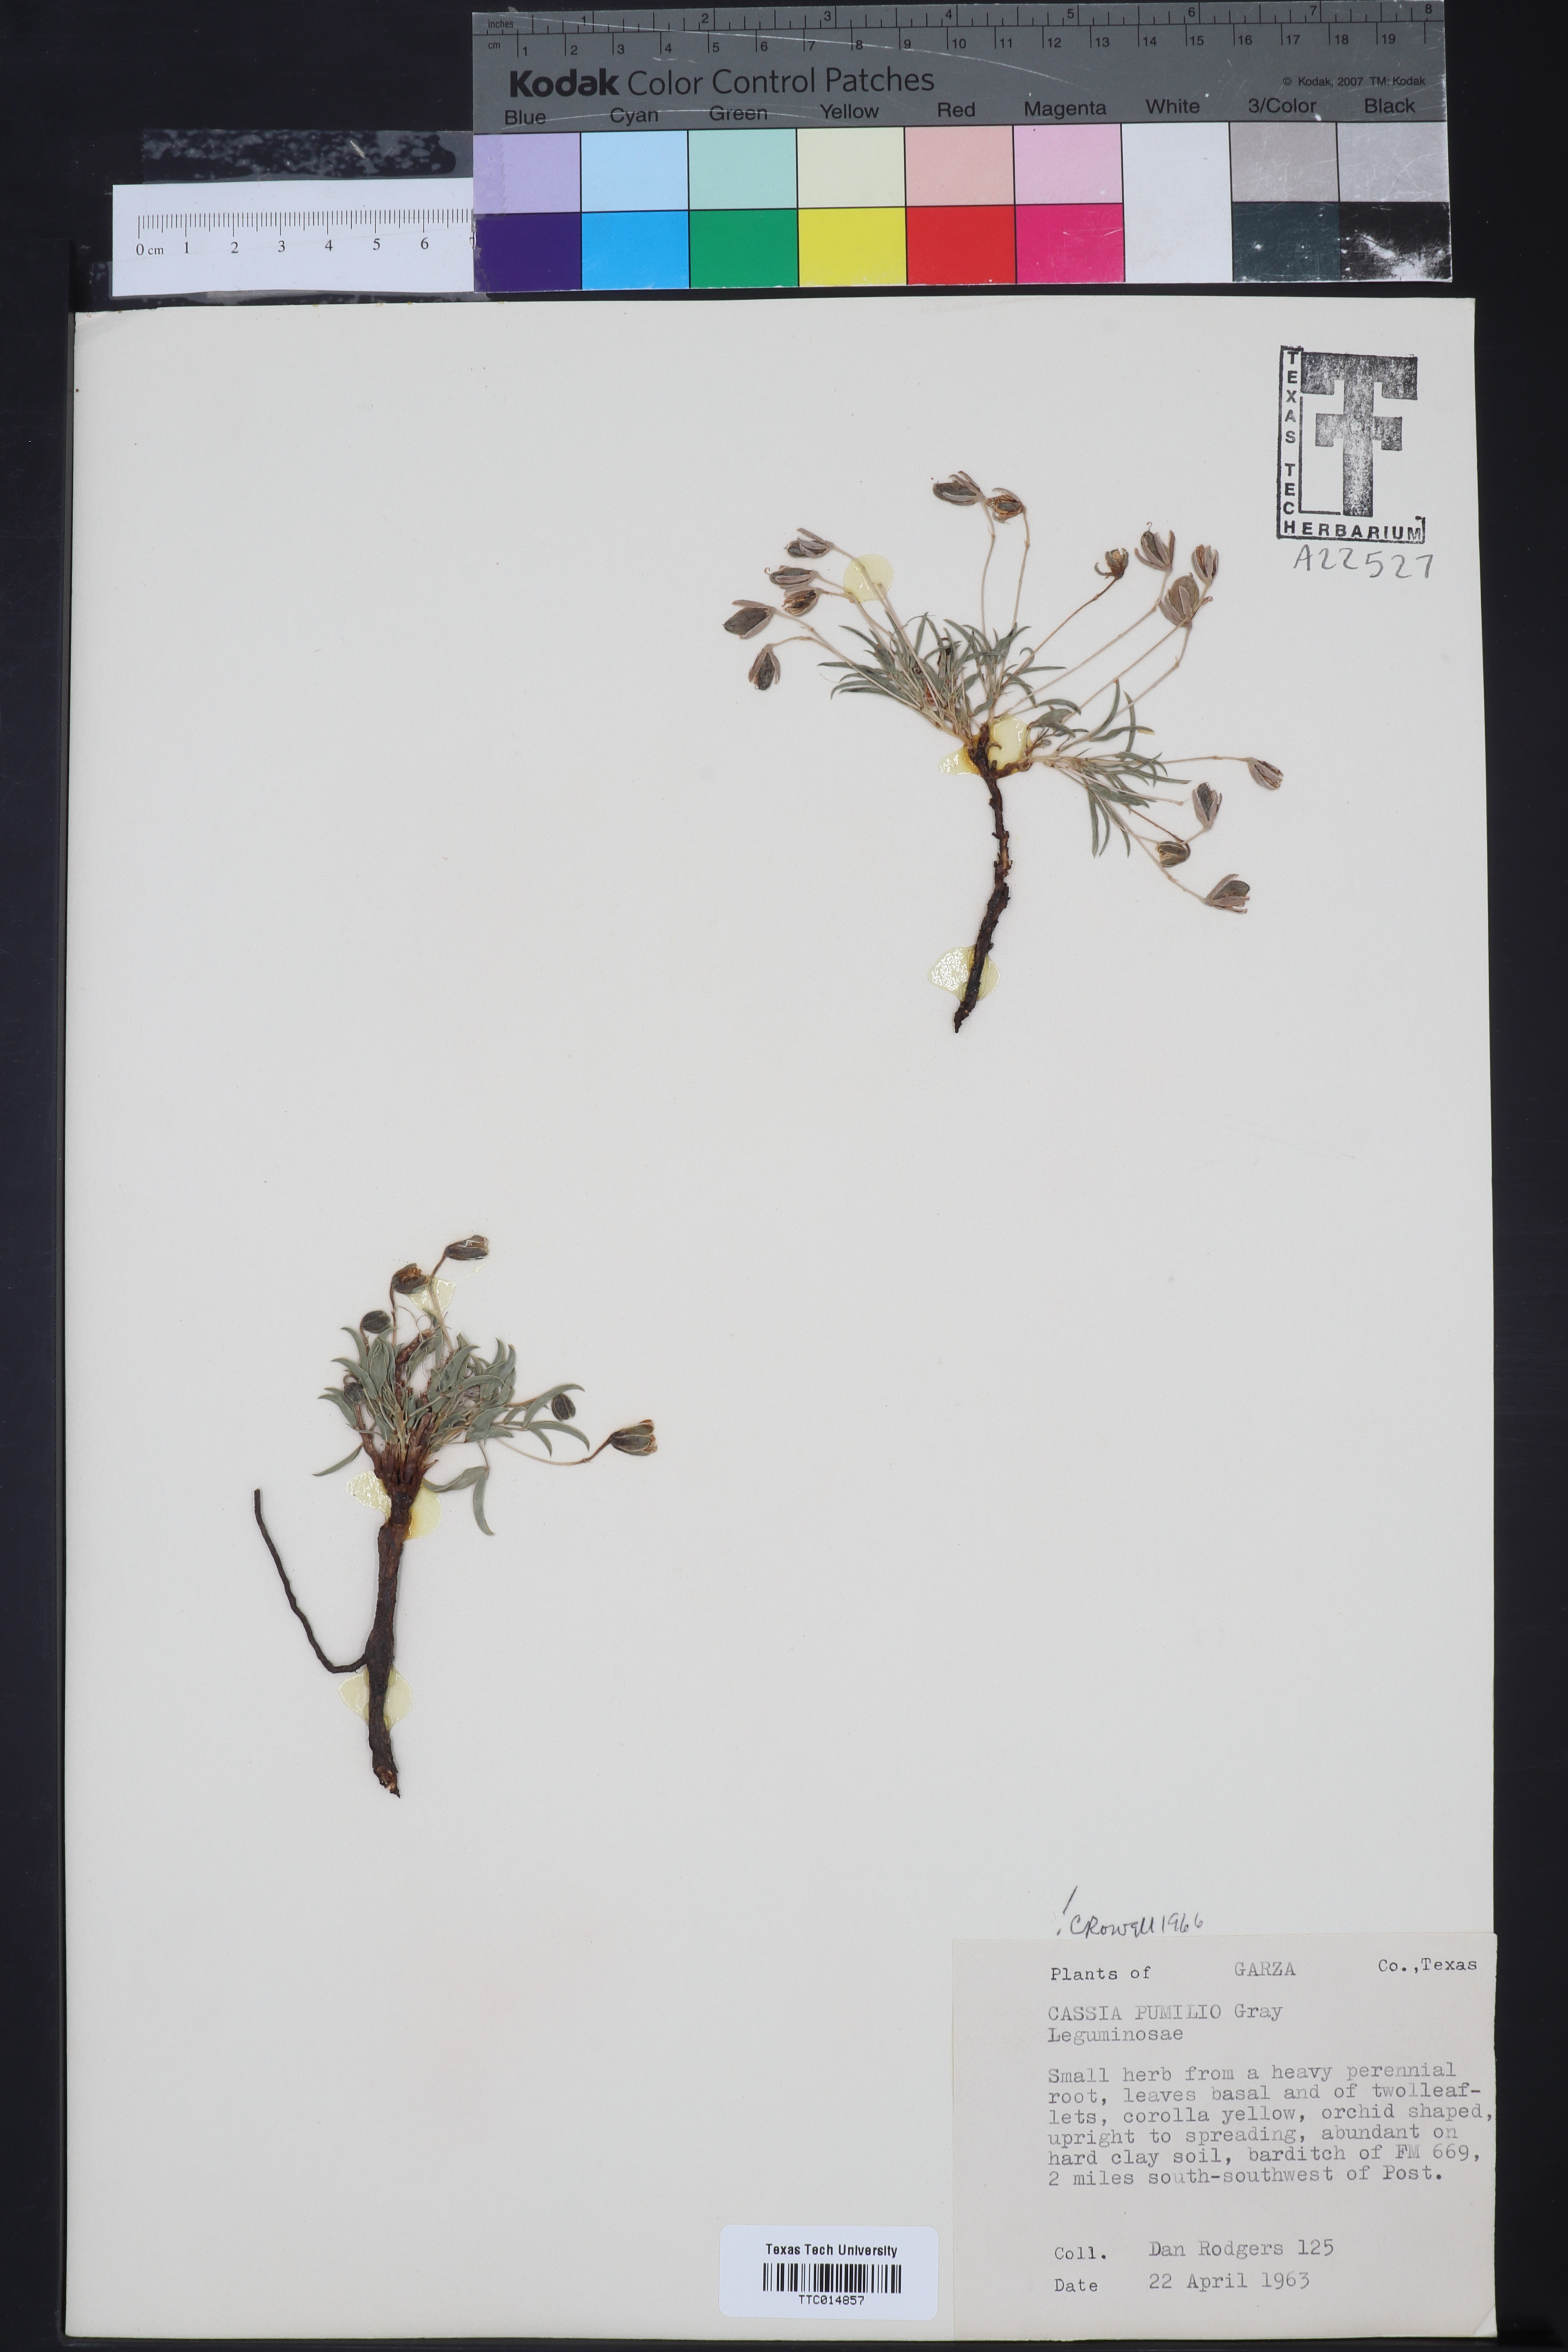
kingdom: Plantae
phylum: Tracheophyta
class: Magnoliopsida
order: Fabales
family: Fabaceae
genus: Senna
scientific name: Senna pumilio
